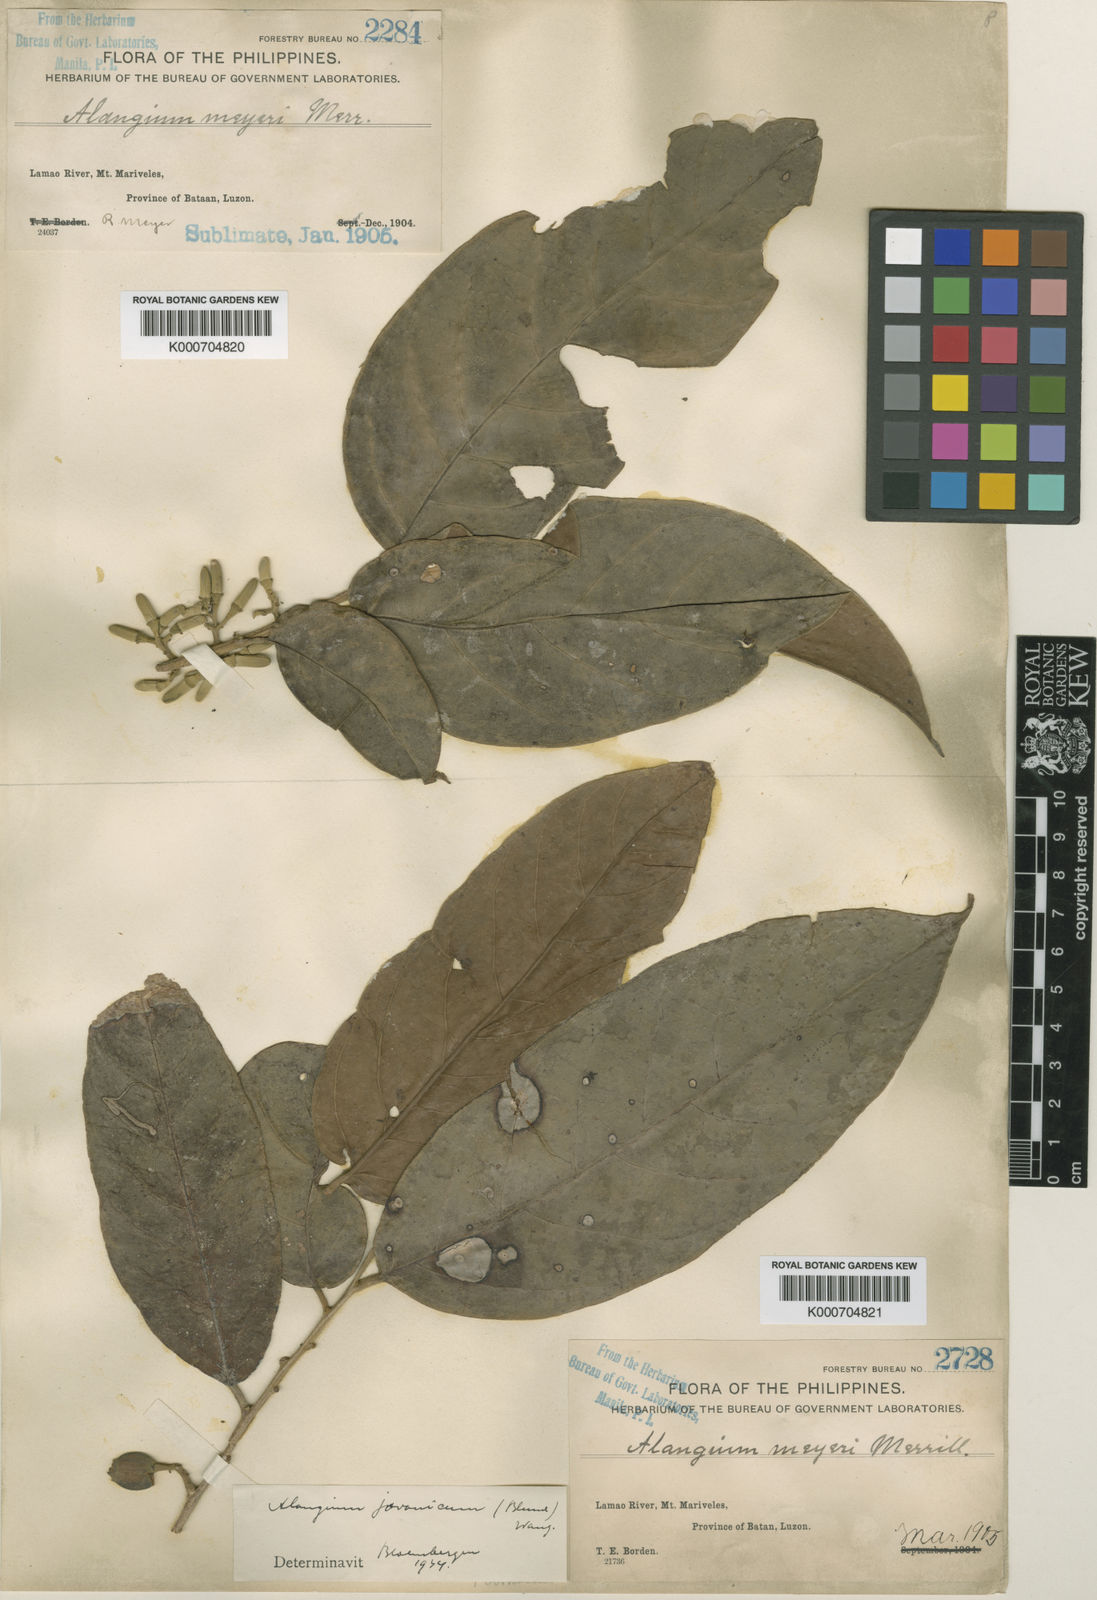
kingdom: Plantae
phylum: Tracheophyta
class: Magnoliopsida
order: Cornales
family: Cornaceae
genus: Alangium
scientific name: Alangium meyeri
